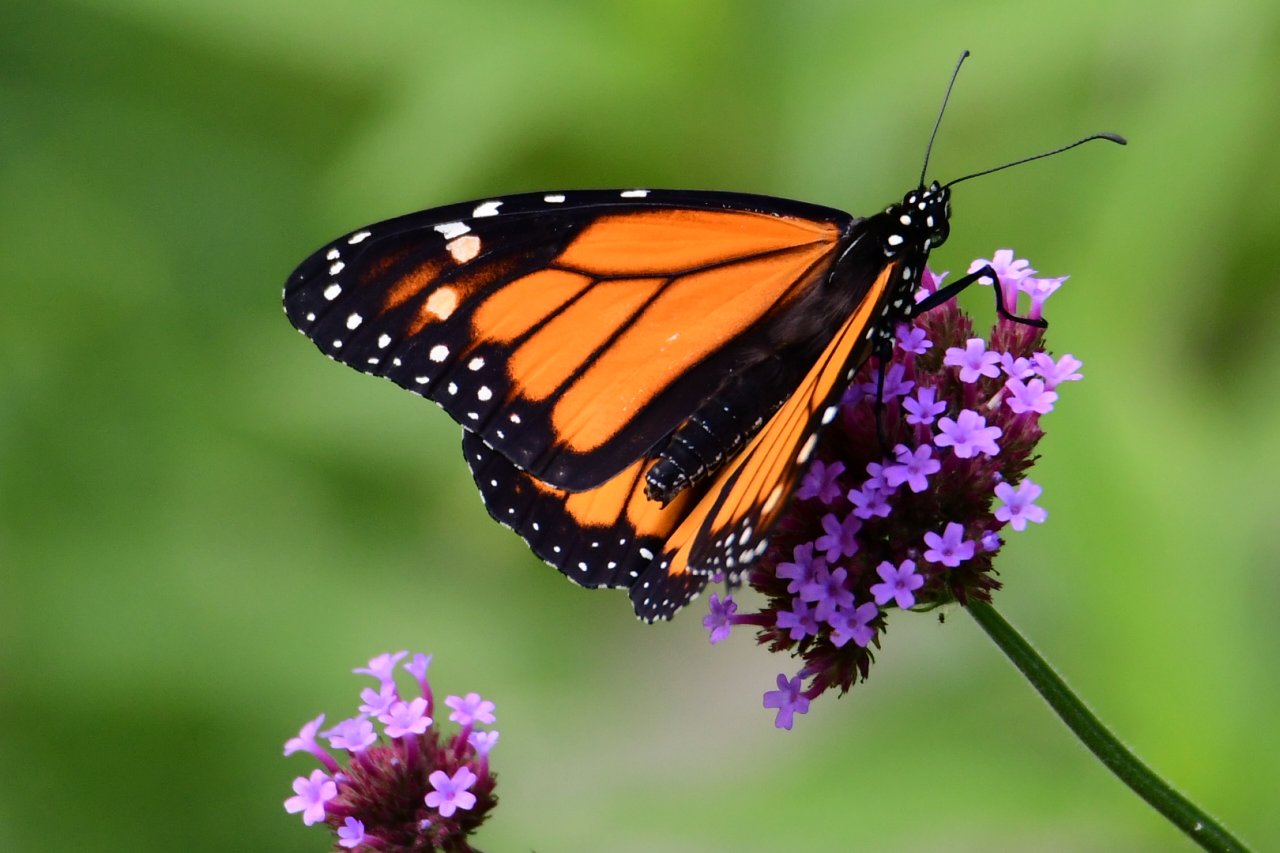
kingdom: Animalia
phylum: Arthropoda
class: Insecta
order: Lepidoptera
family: Nymphalidae
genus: Danaus
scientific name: Danaus plexippus
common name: Monarch
